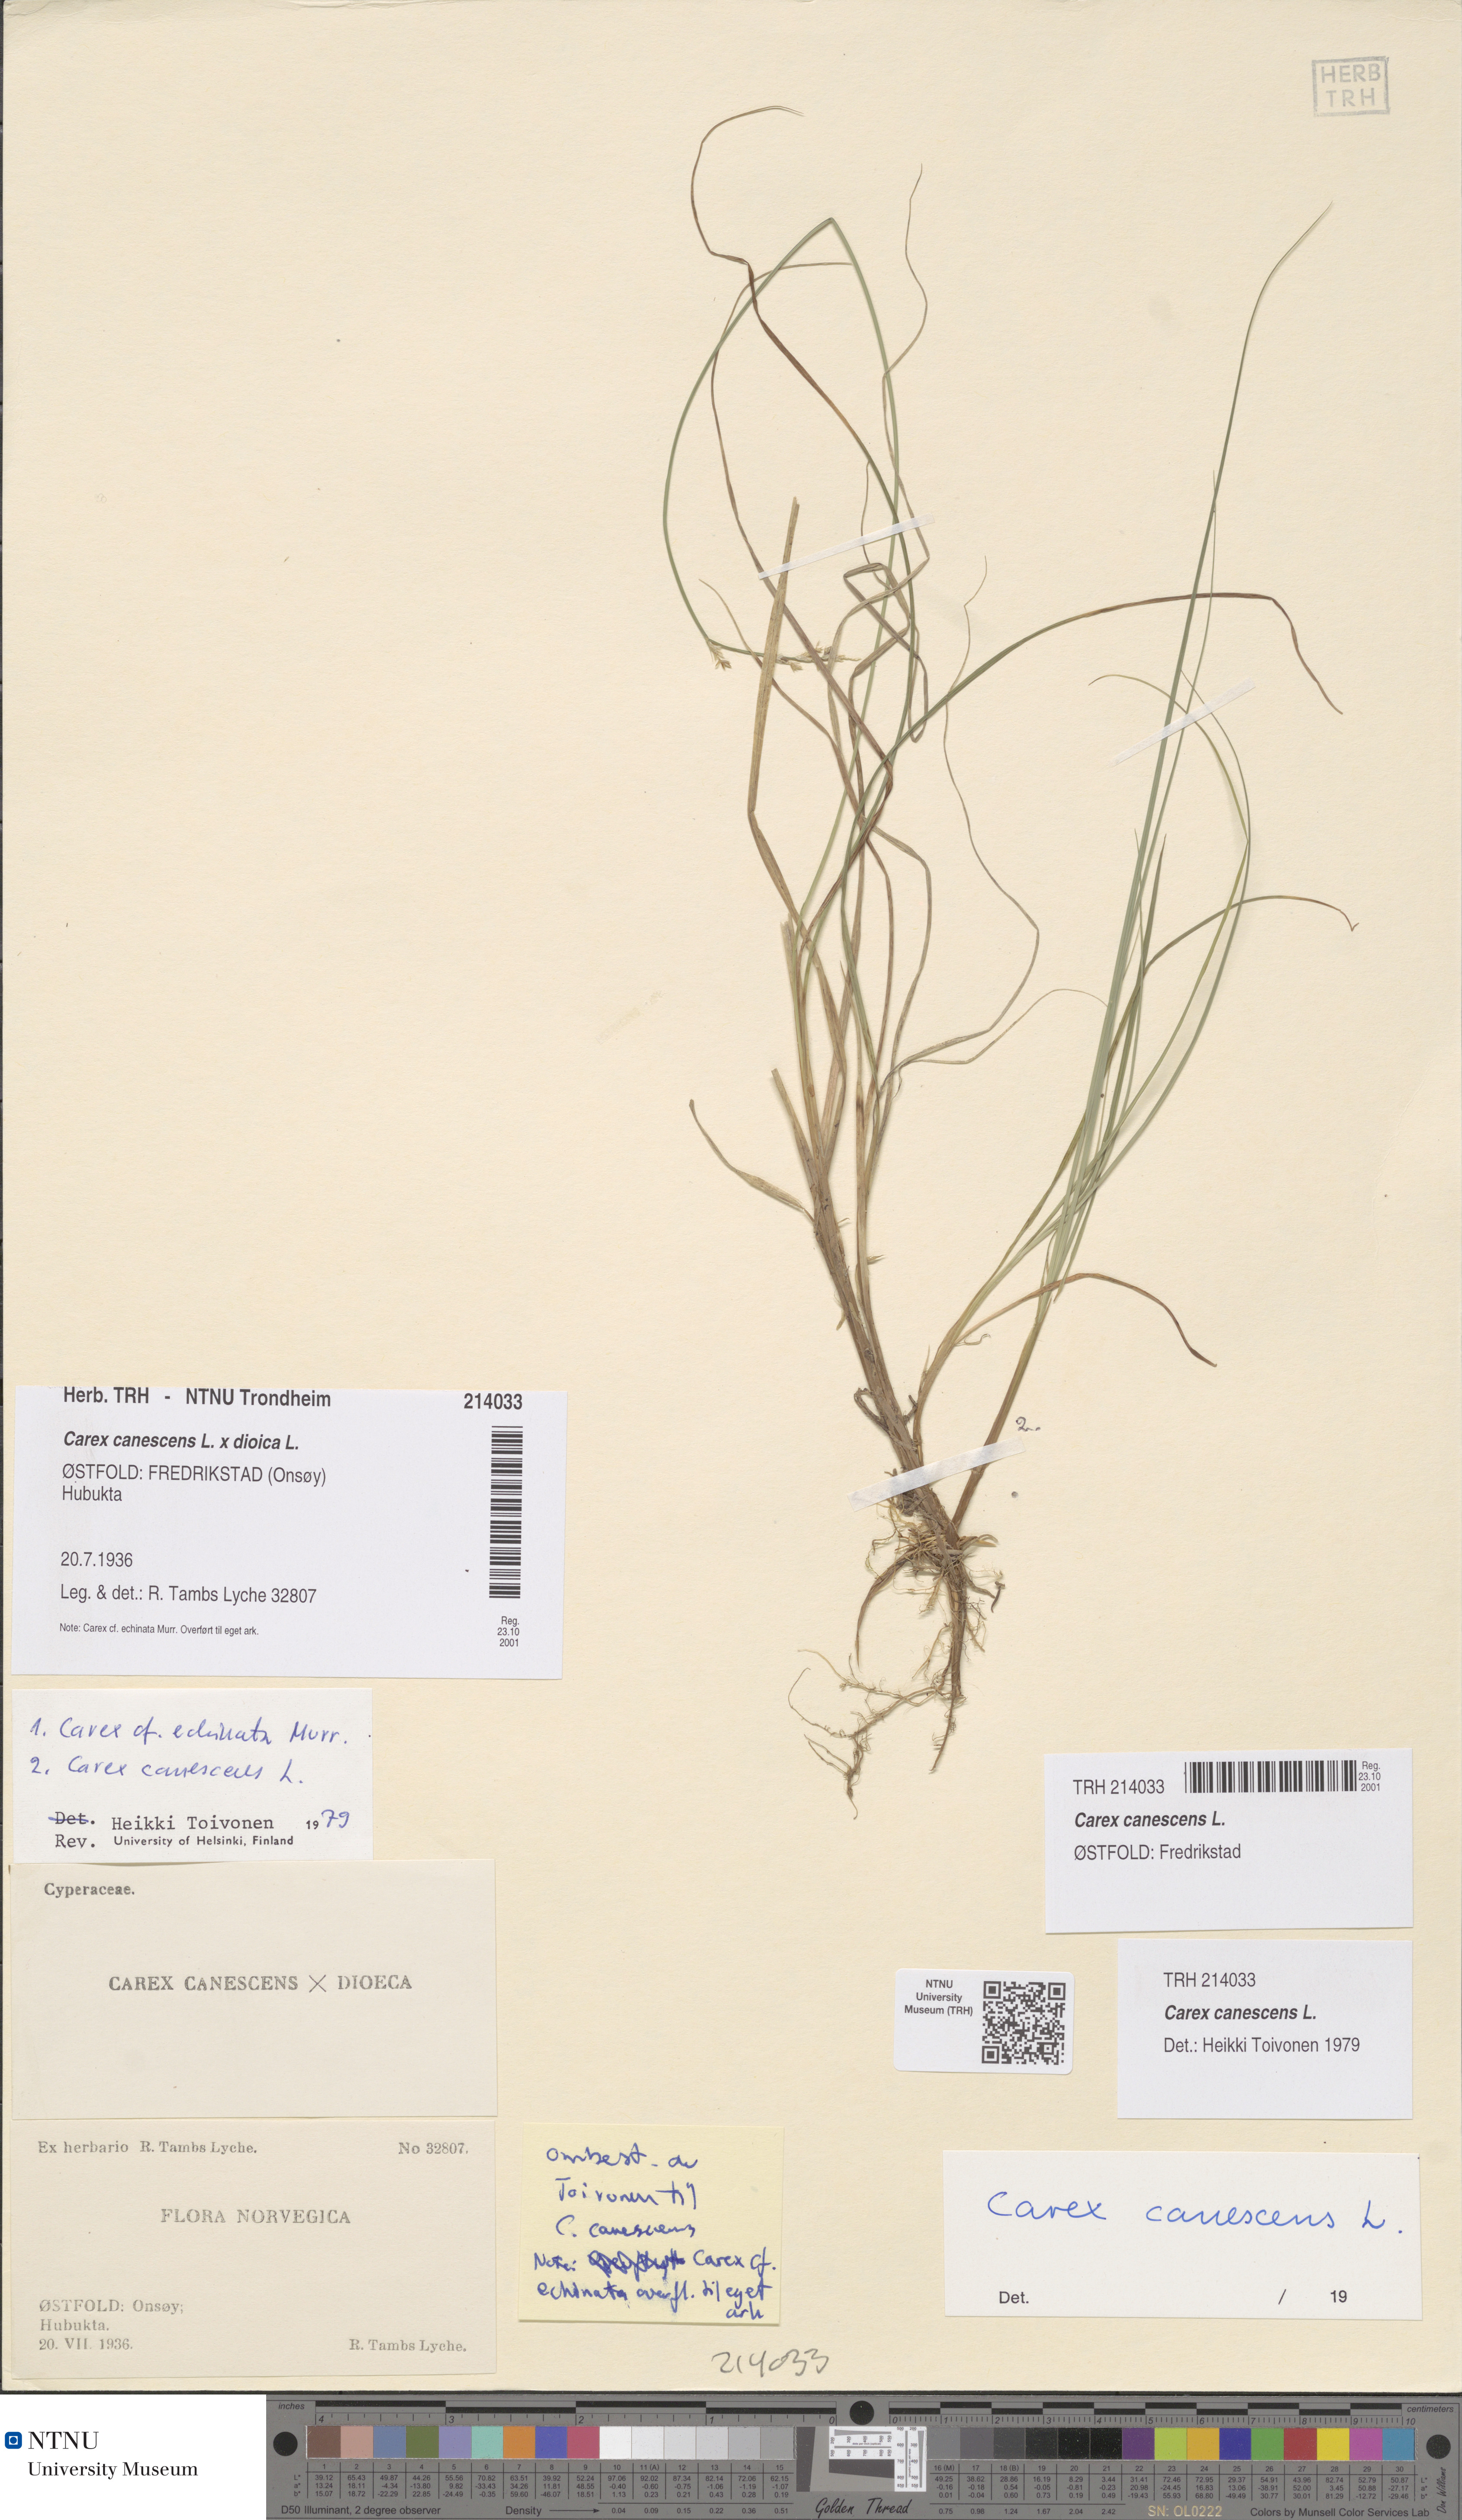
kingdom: Plantae
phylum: Tracheophyta
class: Liliopsida
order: Poales
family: Cyperaceae
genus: Carex
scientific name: Carex canescens
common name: White sedge
